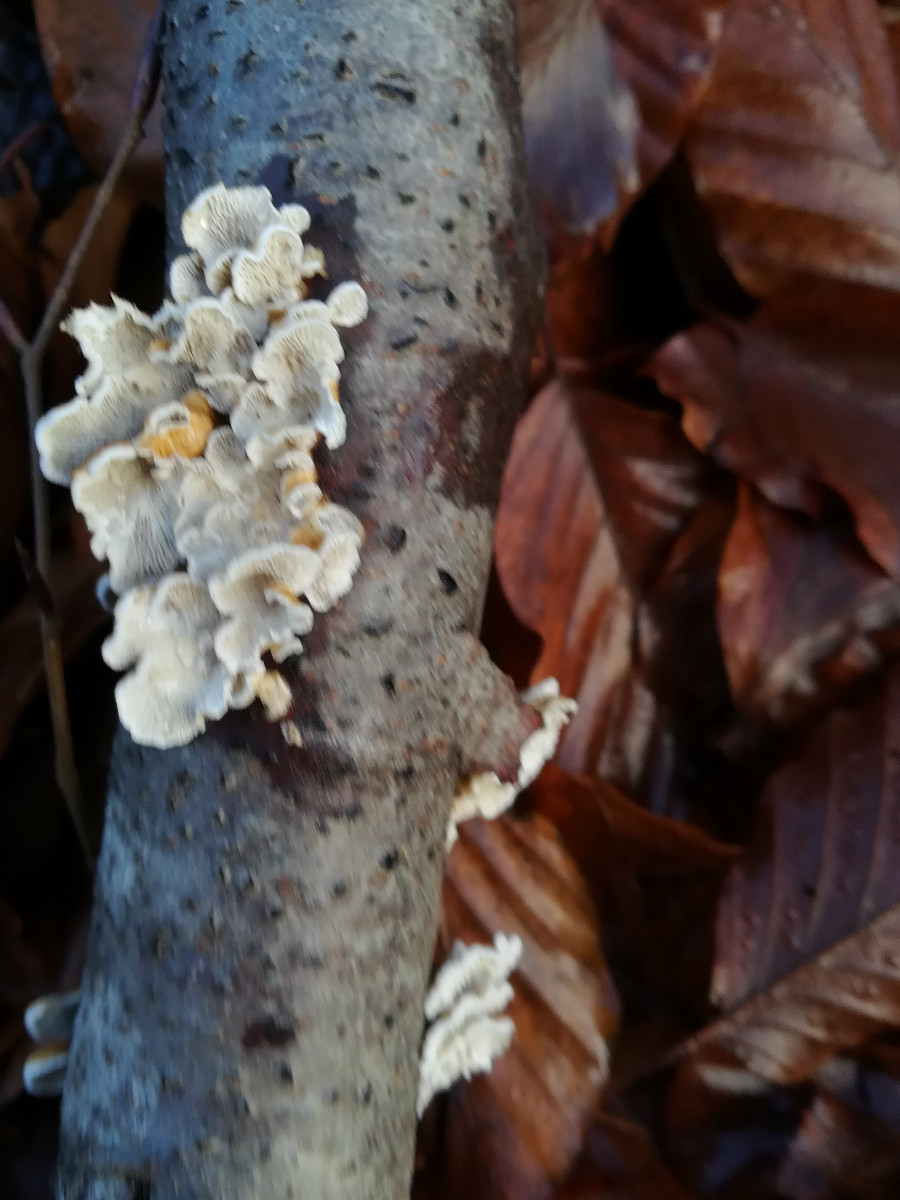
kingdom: Fungi
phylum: Basidiomycota
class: Agaricomycetes
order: Amylocorticiales
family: Amylocorticiaceae
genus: Plicaturopsis
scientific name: Plicaturopsis crispa
